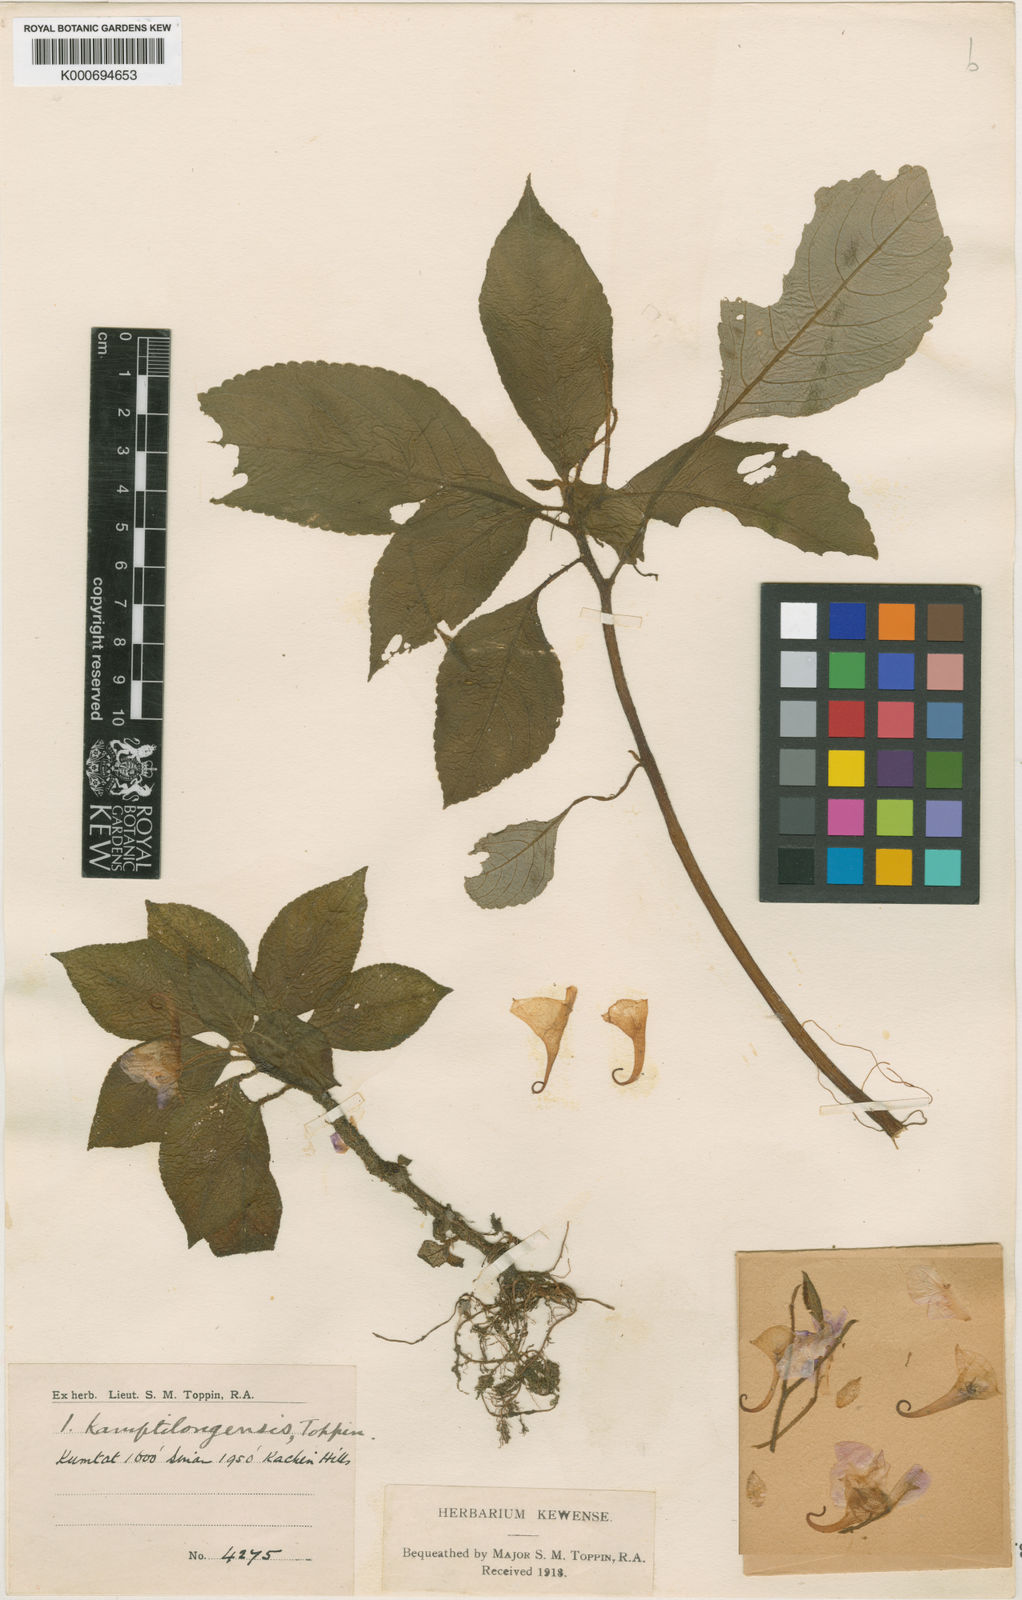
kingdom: Plantae
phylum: Tracheophyta
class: Magnoliopsida
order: Ericales
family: Balsaminaceae
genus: Impatiens
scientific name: Impatiens khasiana
